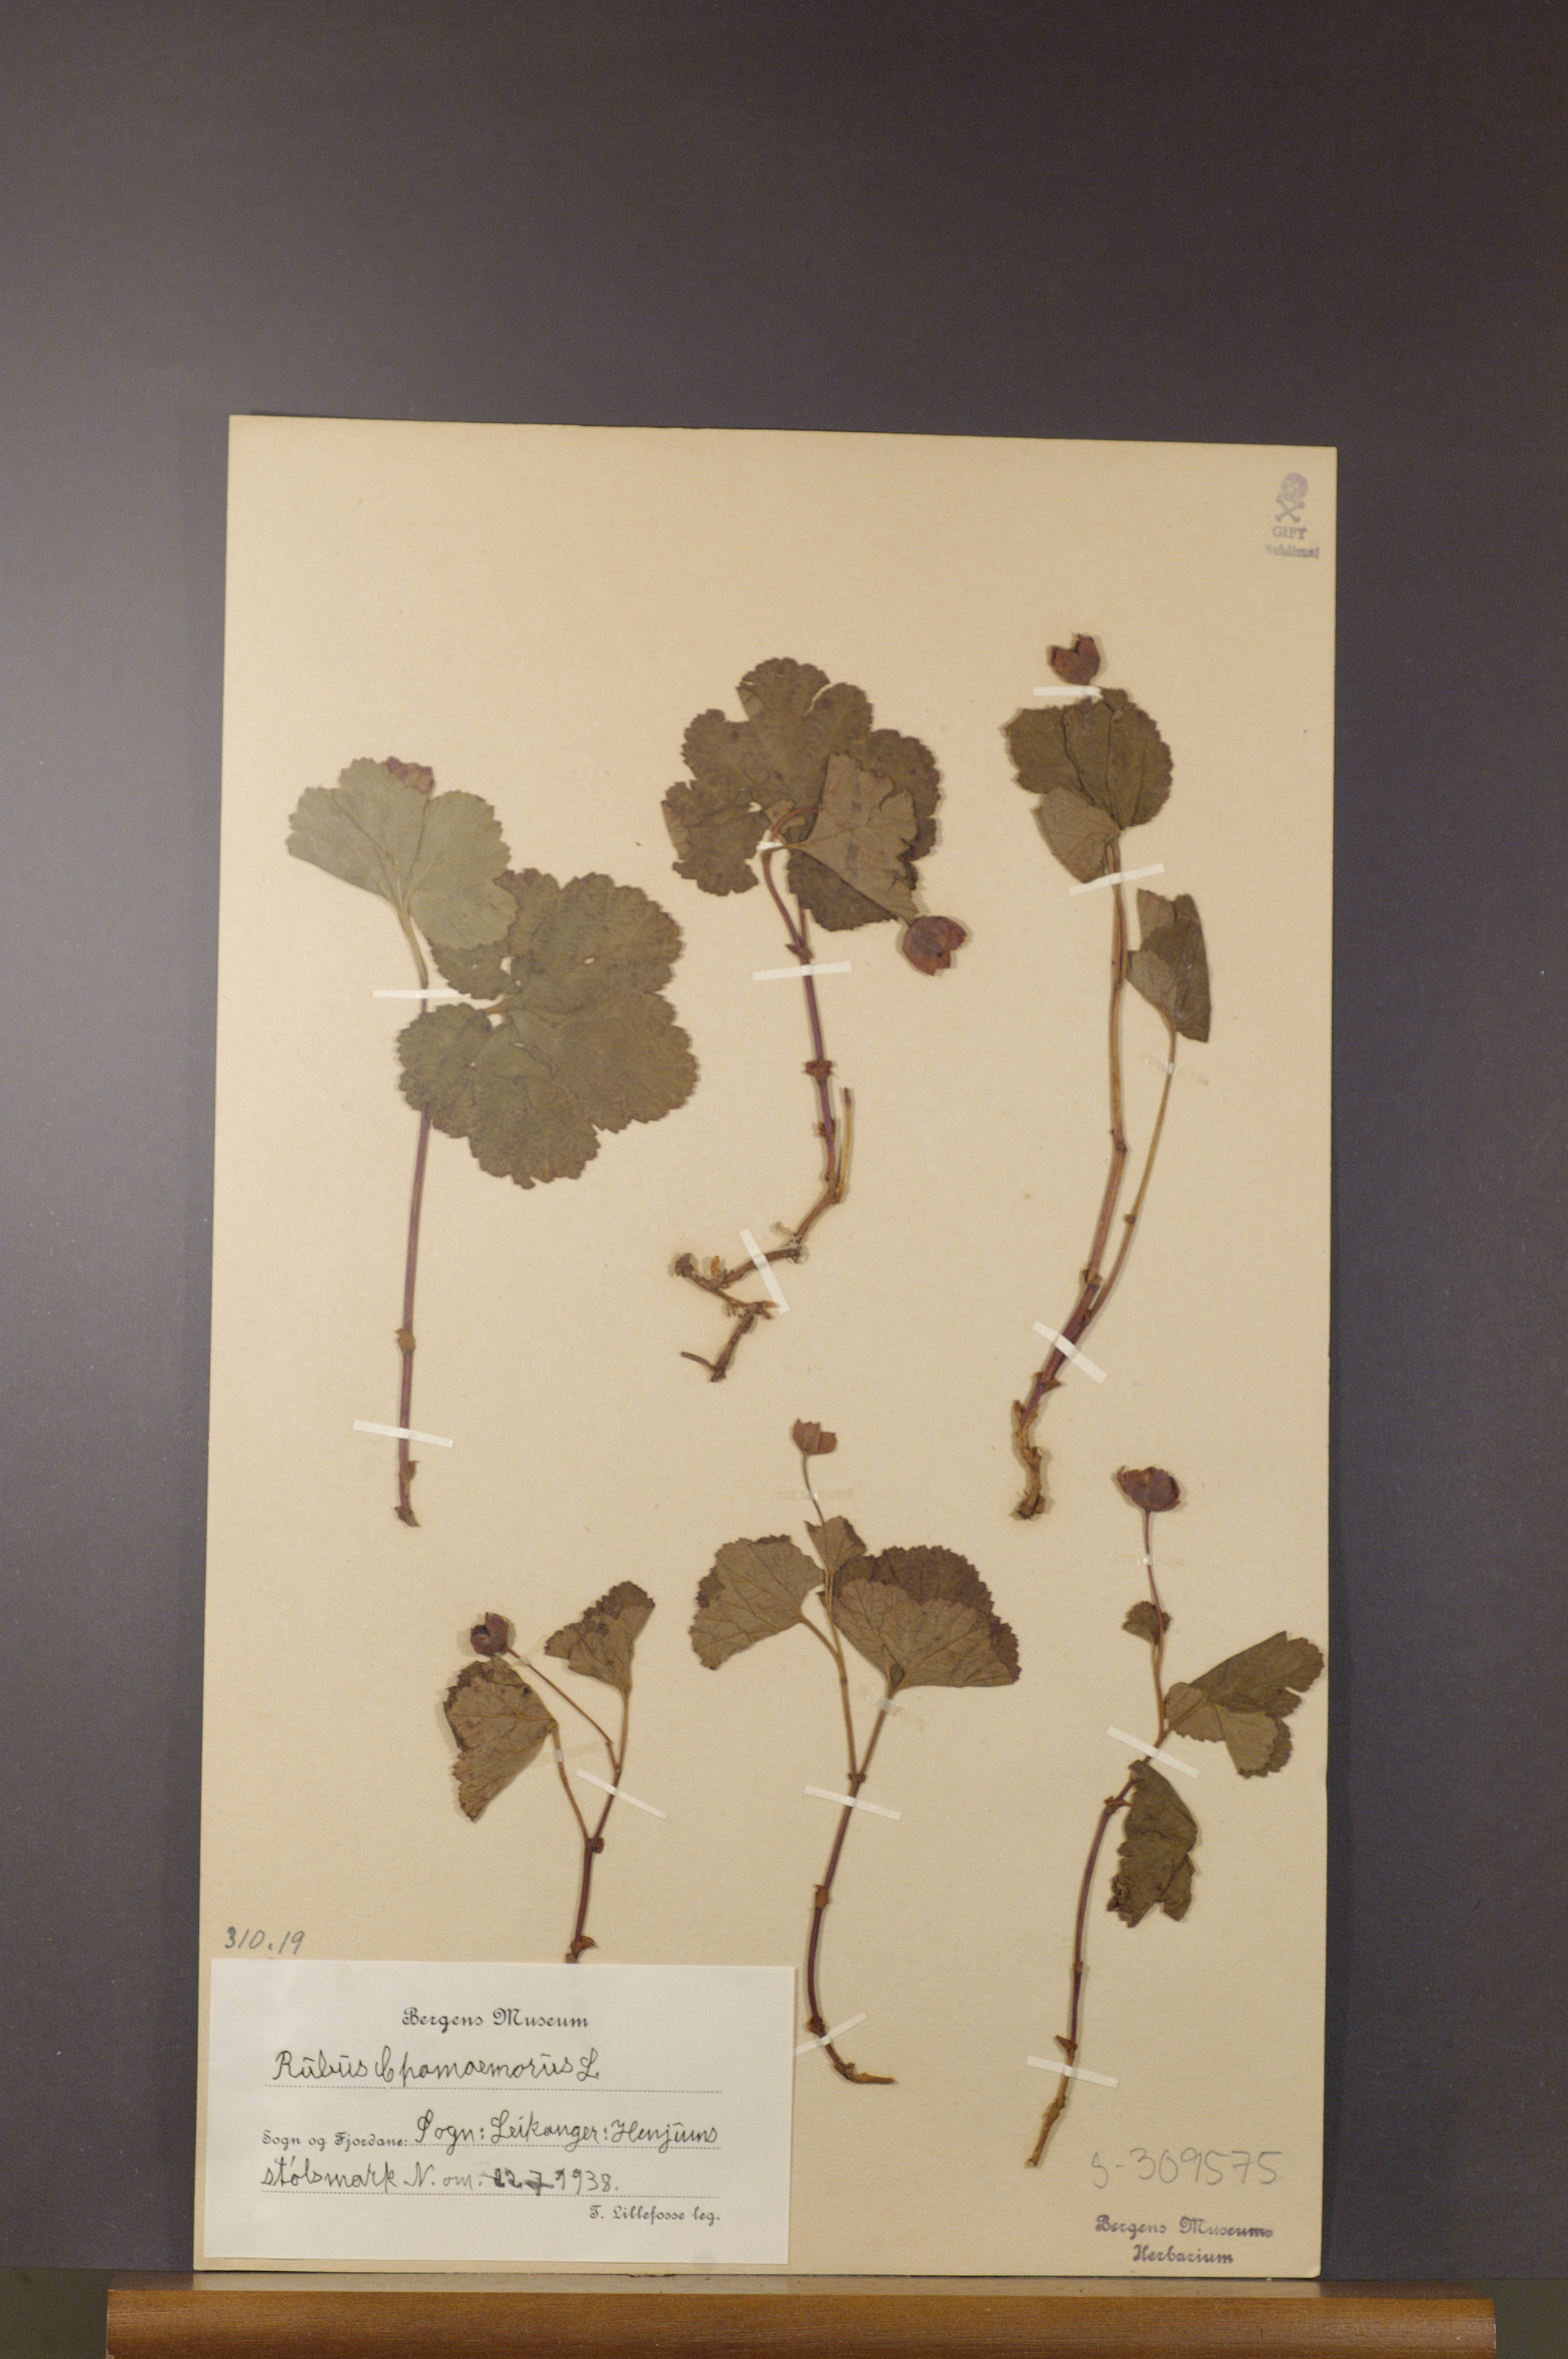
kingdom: Plantae
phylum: Tracheophyta
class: Magnoliopsida
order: Rosales
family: Rosaceae
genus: Rubus
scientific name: Rubus chamaemorus
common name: Cloudberry
